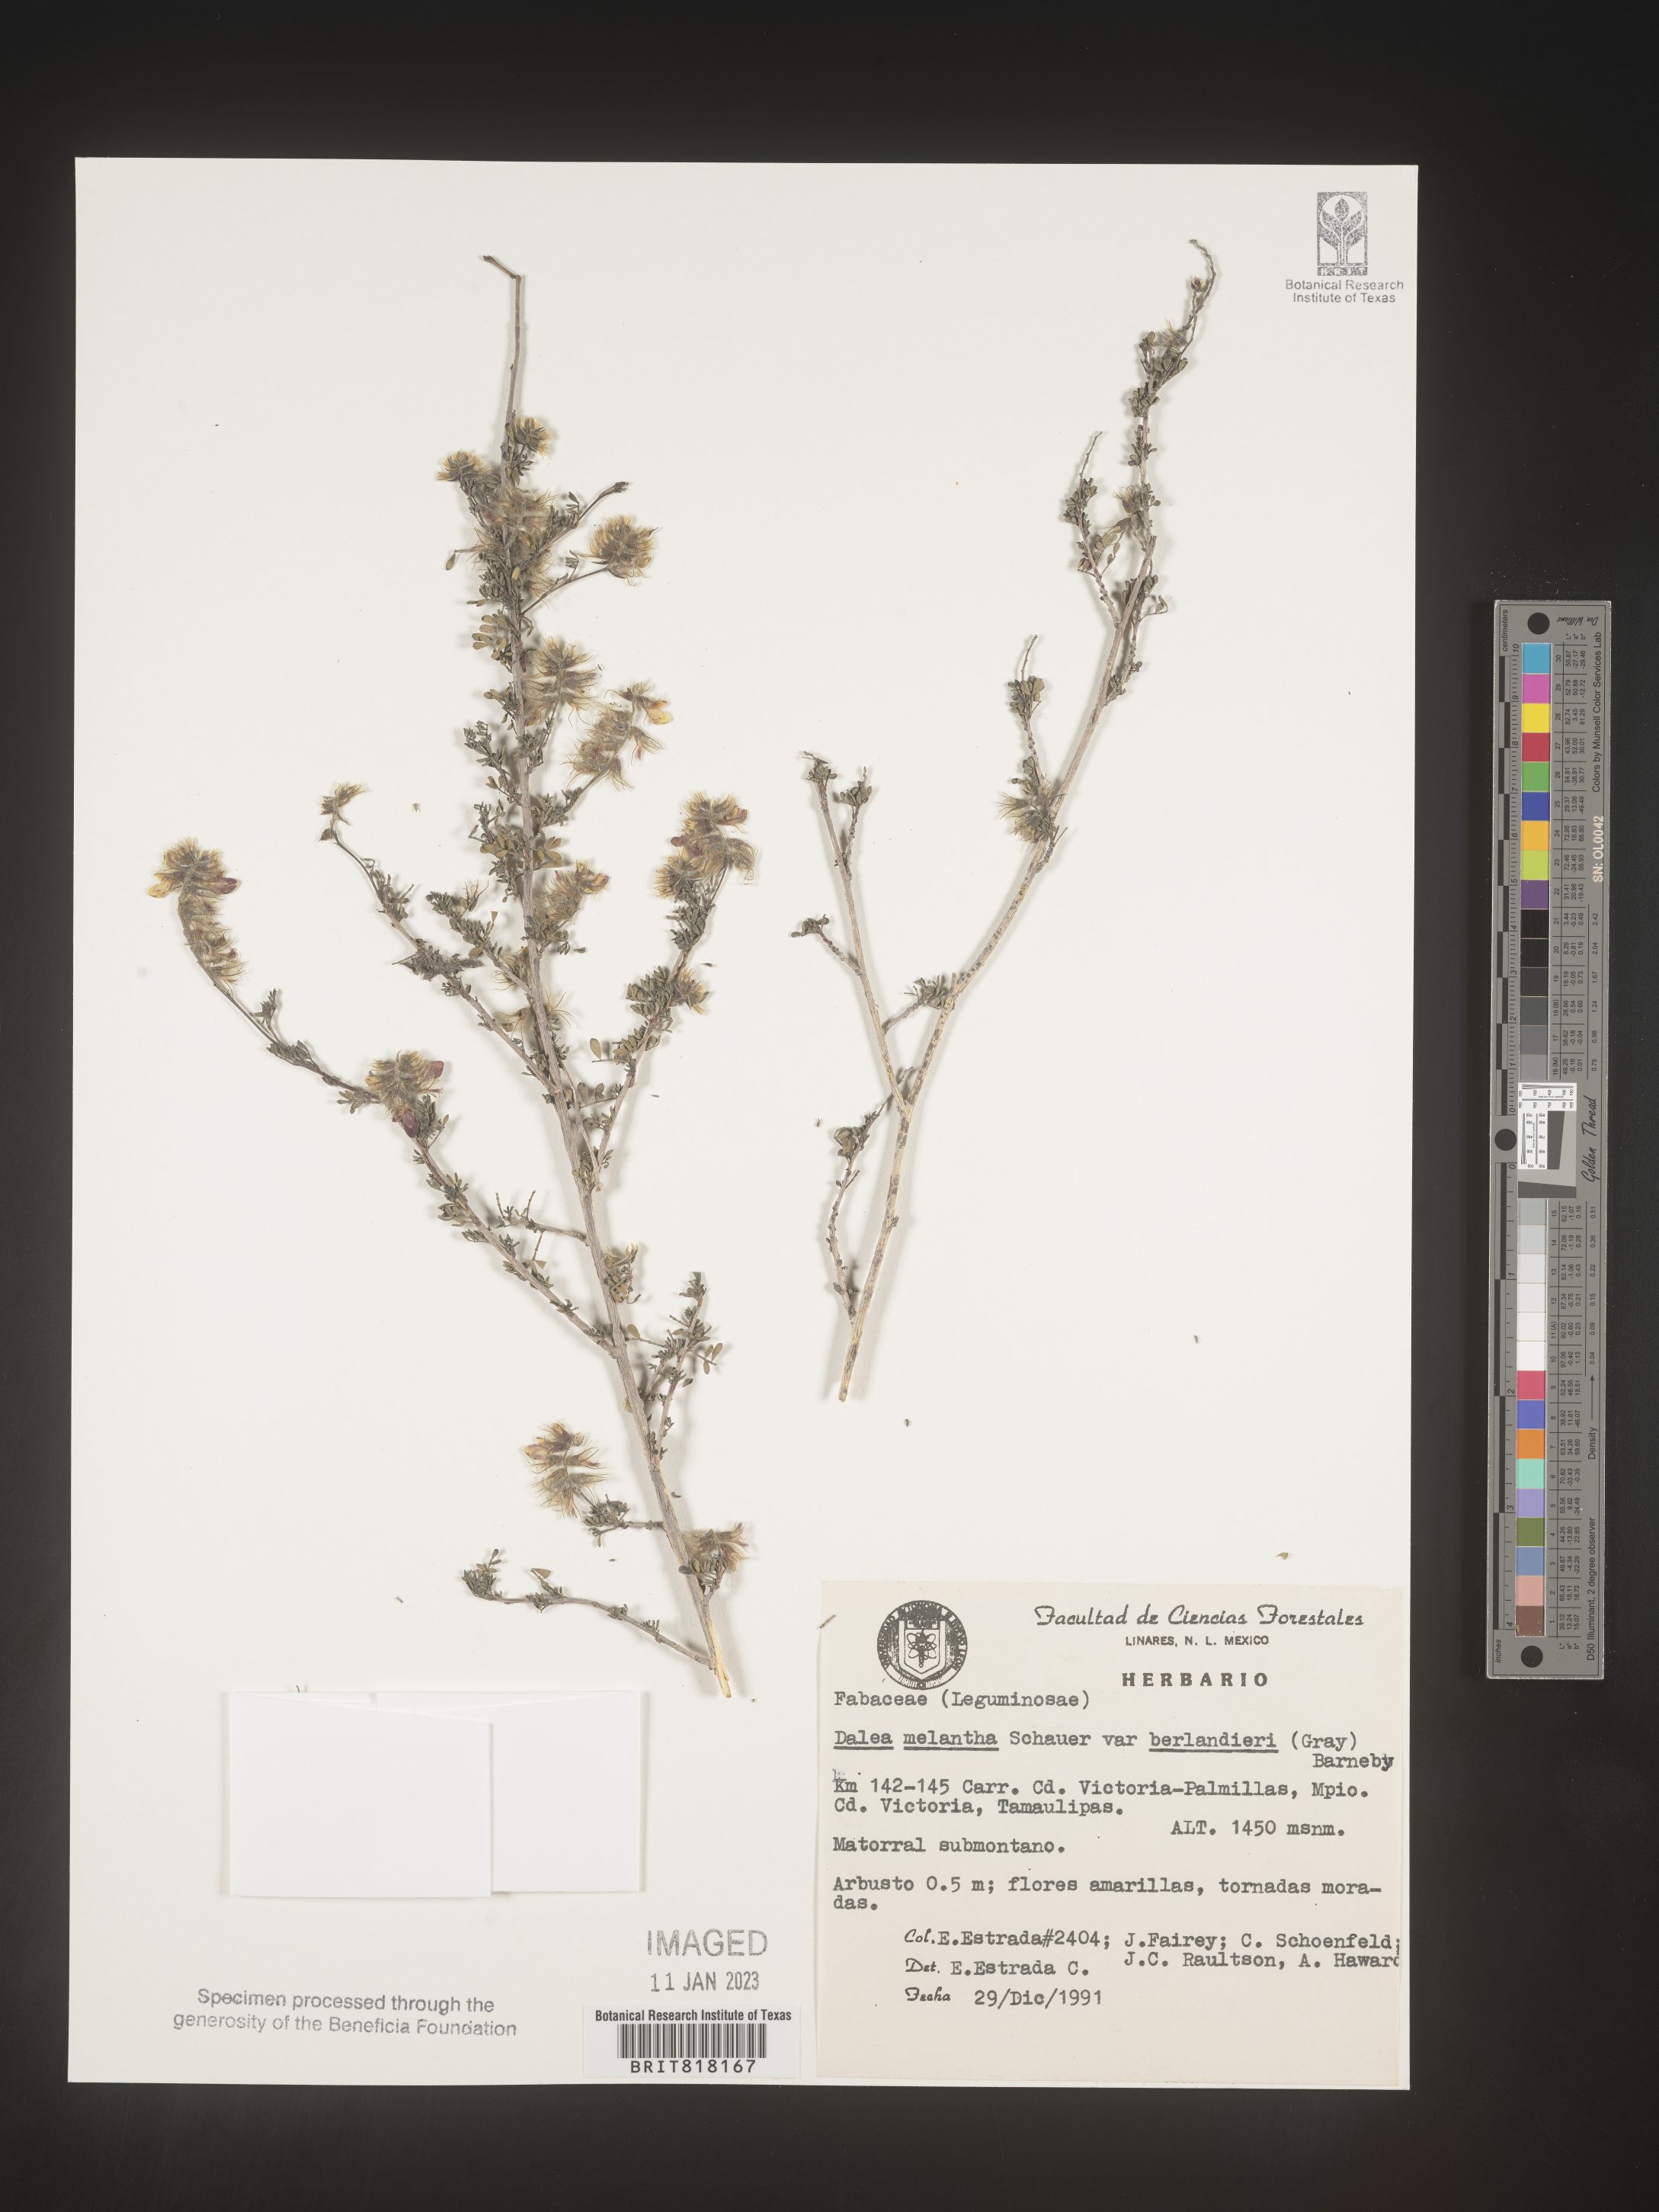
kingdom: Plantae
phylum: Tracheophyta
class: Magnoliopsida
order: Fabales
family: Fabaceae
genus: Dalea
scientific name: Dalea
